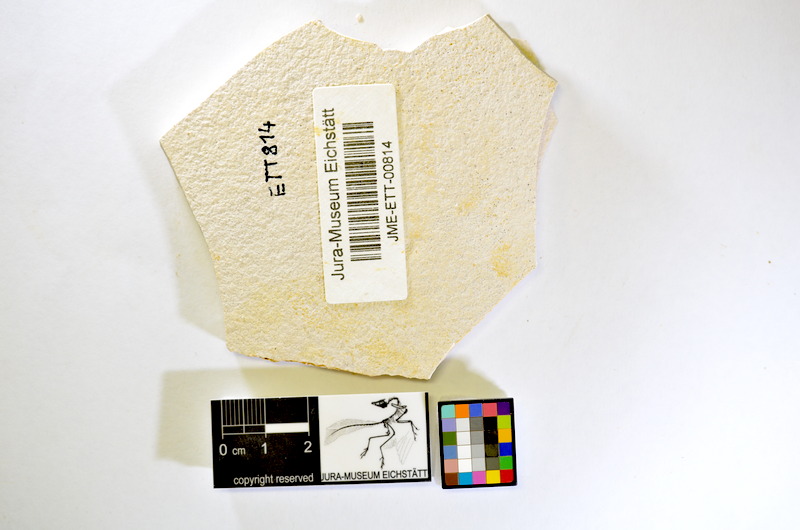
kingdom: Animalia
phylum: Chordata
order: Salmoniformes
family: Orthogonikleithridae
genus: Orthogonikleithrus
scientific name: Orthogonikleithrus hoelli
